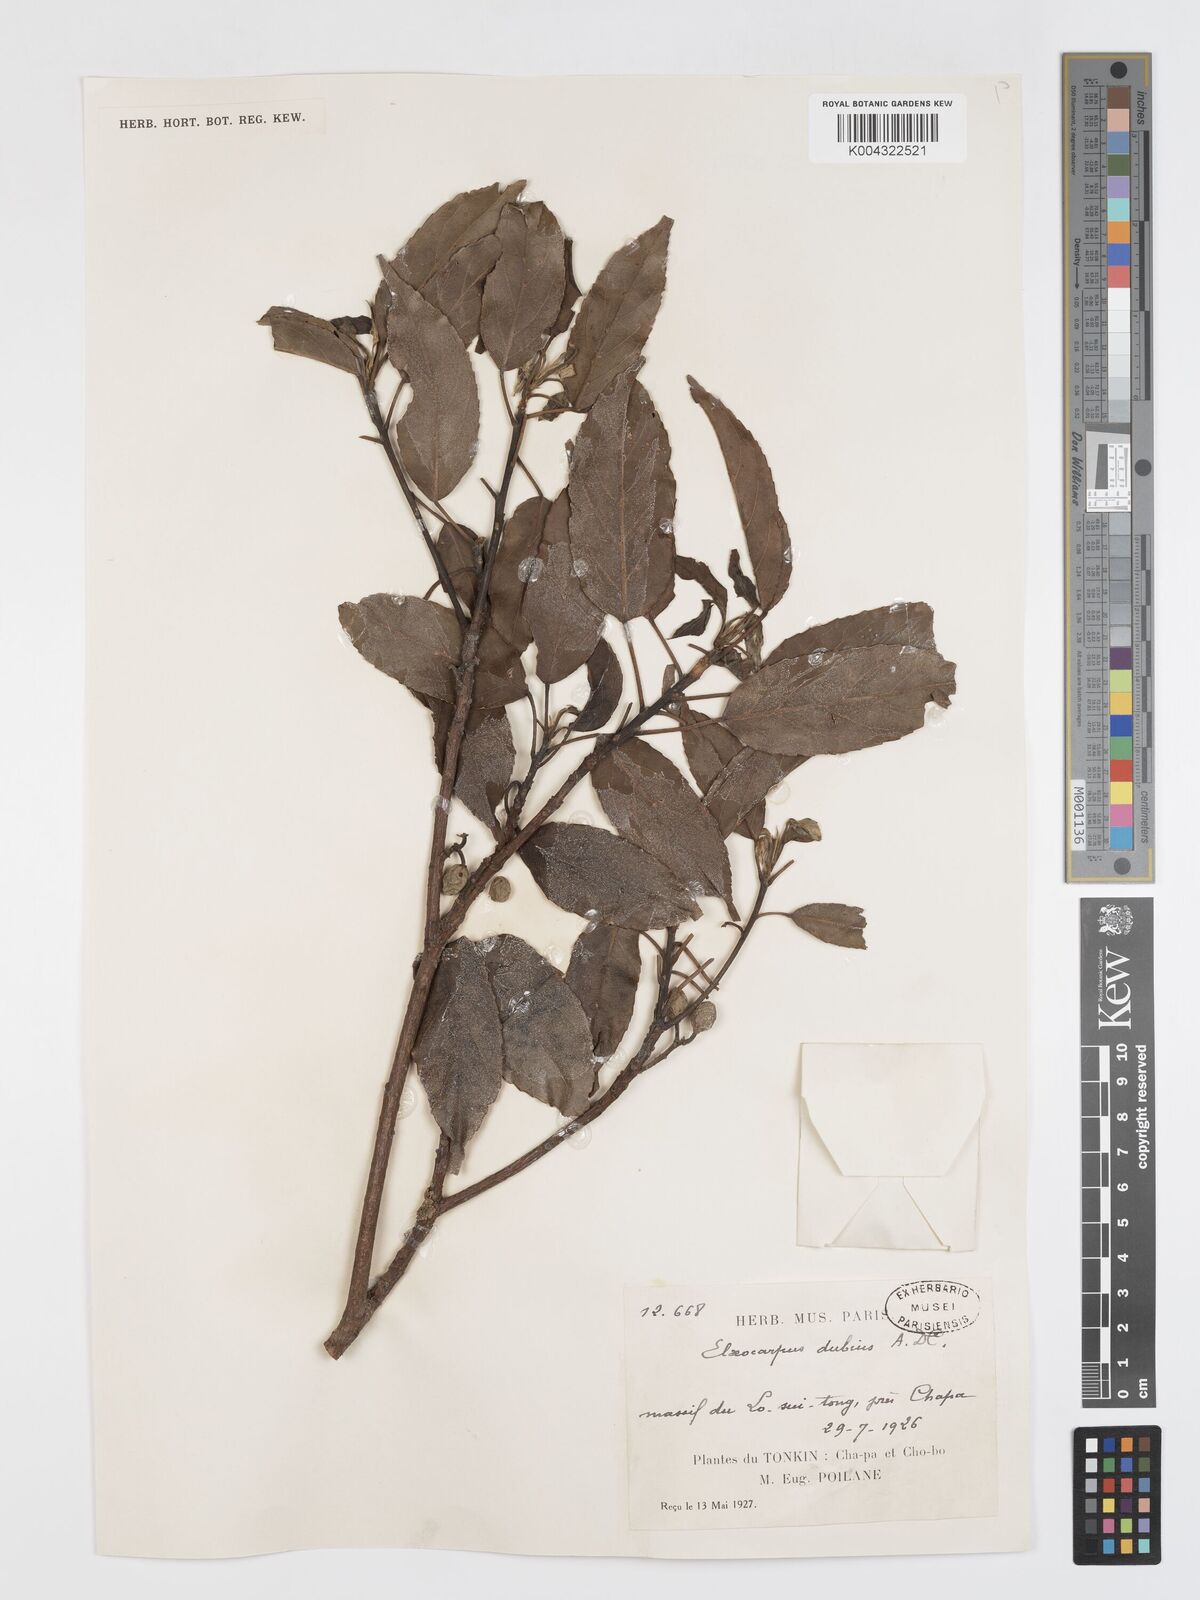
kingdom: Plantae
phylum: Tracheophyta
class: Magnoliopsida
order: Oxalidales
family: Elaeocarpaceae
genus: Elaeocarpus
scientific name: Elaeocarpus dubius
